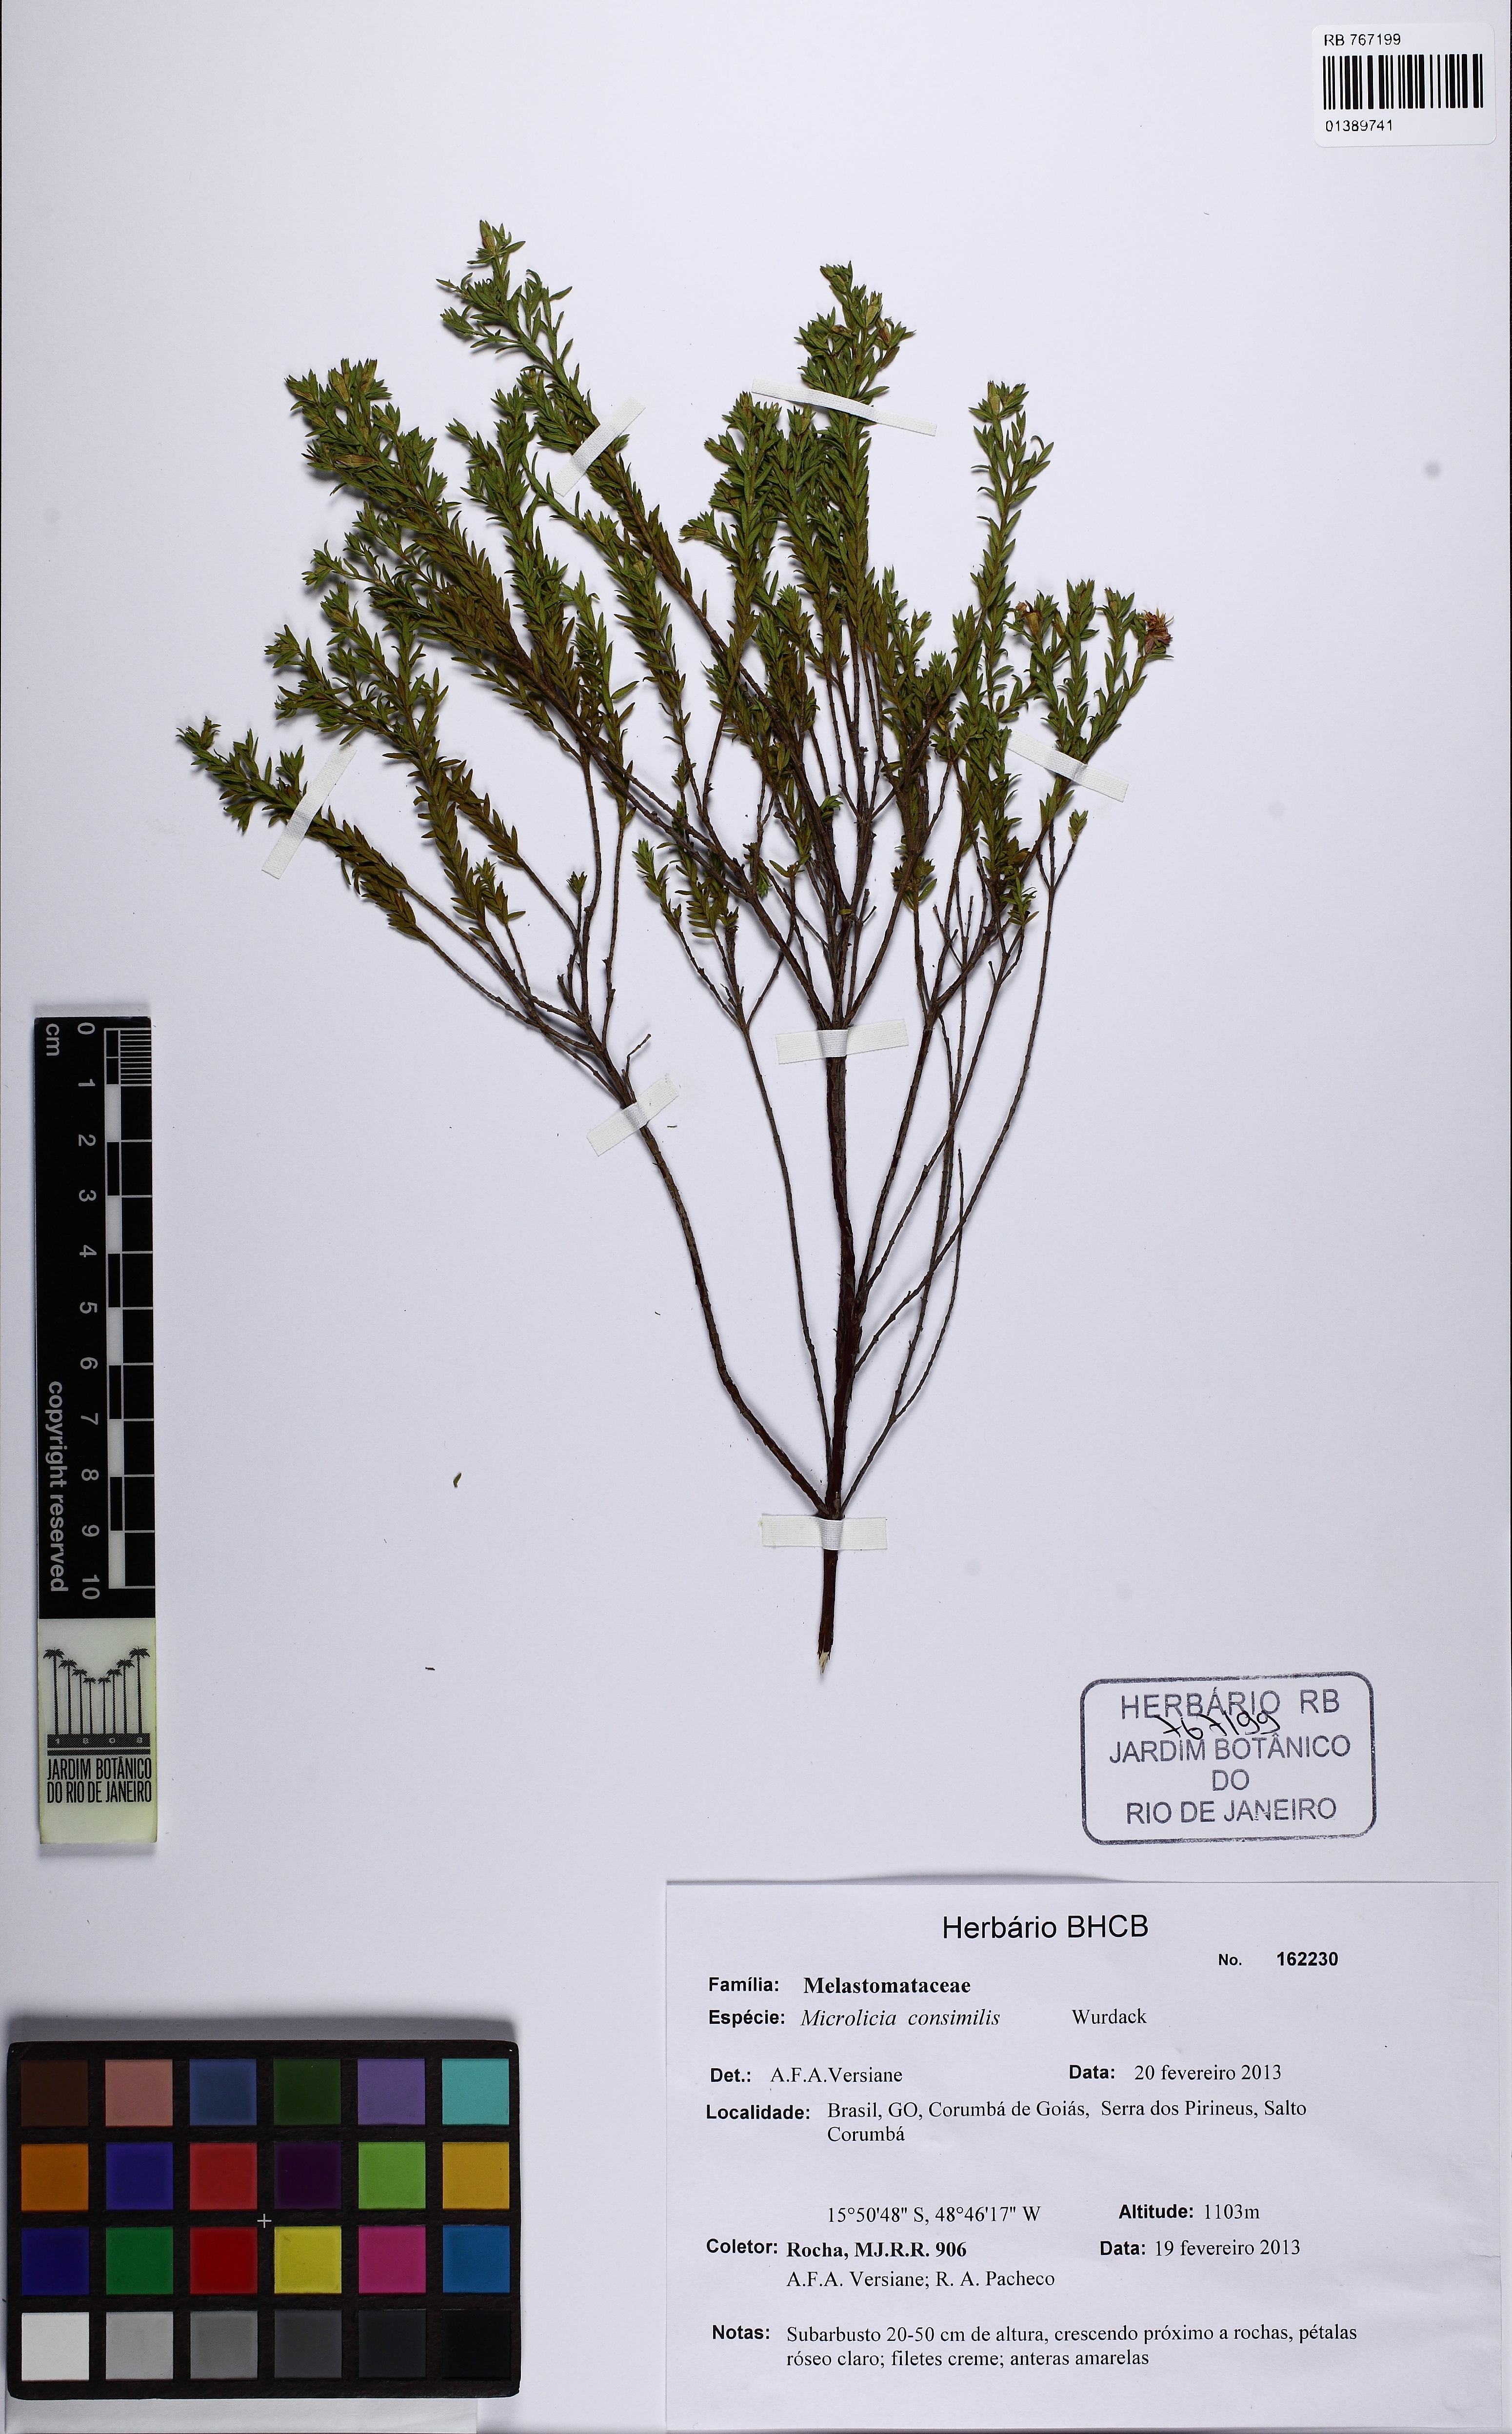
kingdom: Plantae
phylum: Tracheophyta
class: Magnoliopsida
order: Myrtales
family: Melastomataceae
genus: Microlicia
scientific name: Microlicia consimilis
